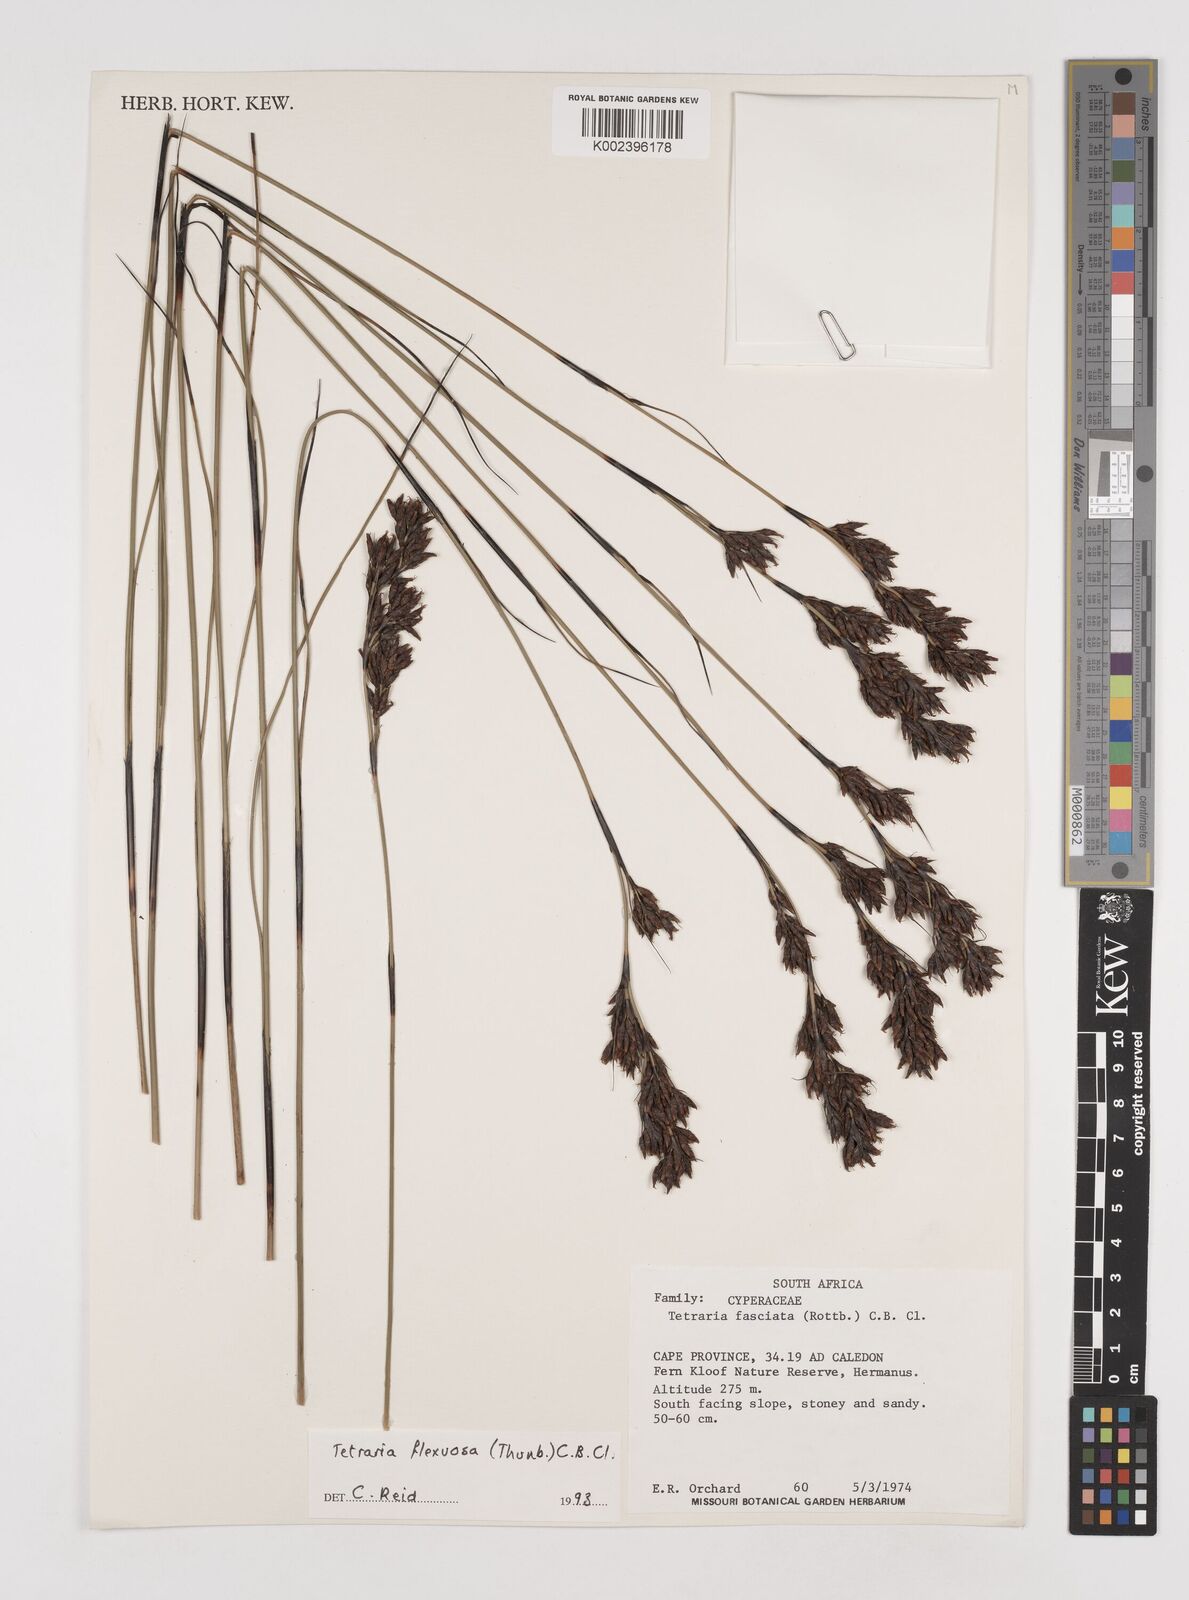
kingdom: Plantae
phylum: Tracheophyta
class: Liliopsida
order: Poales
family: Cyperaceae
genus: Tetraria
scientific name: Tetraria flexuosa
